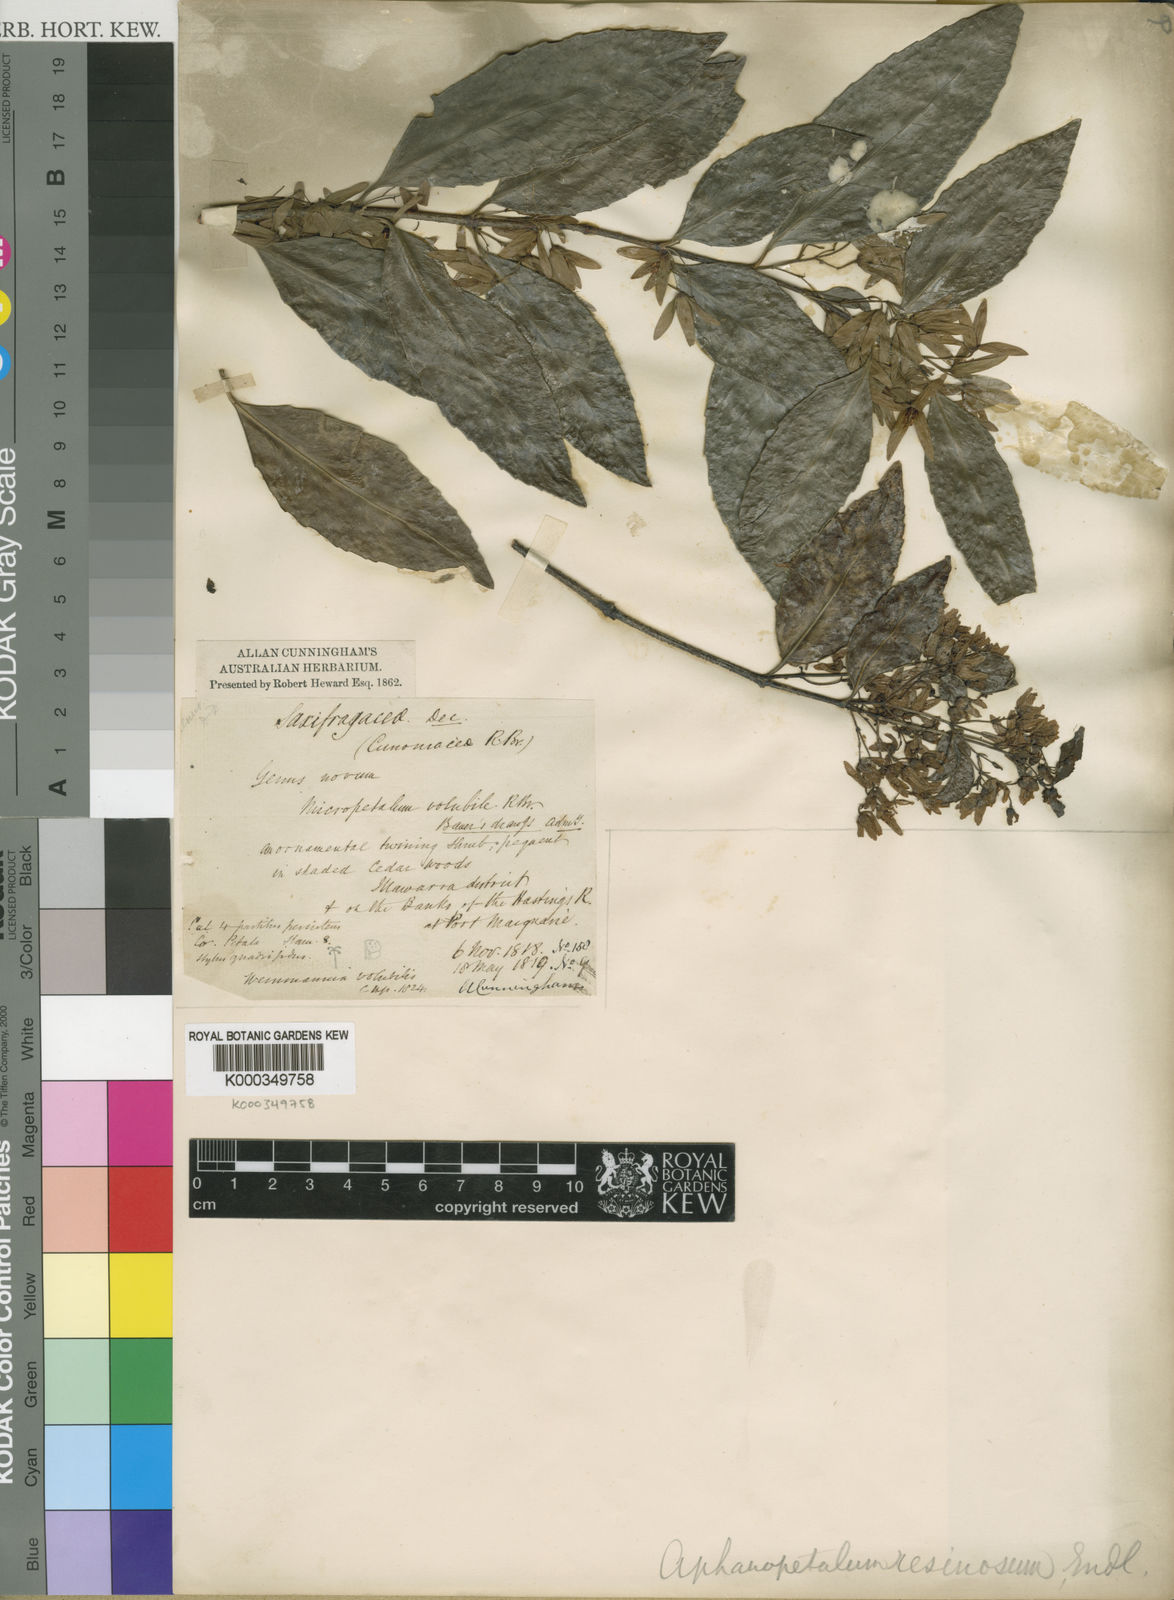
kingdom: Plantae
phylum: Tracheophyta
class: Magnoliopsida
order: Saxifragales
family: Aphanopetalaceae
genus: Aphanopetalum
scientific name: Aphanopetalum resinosum
